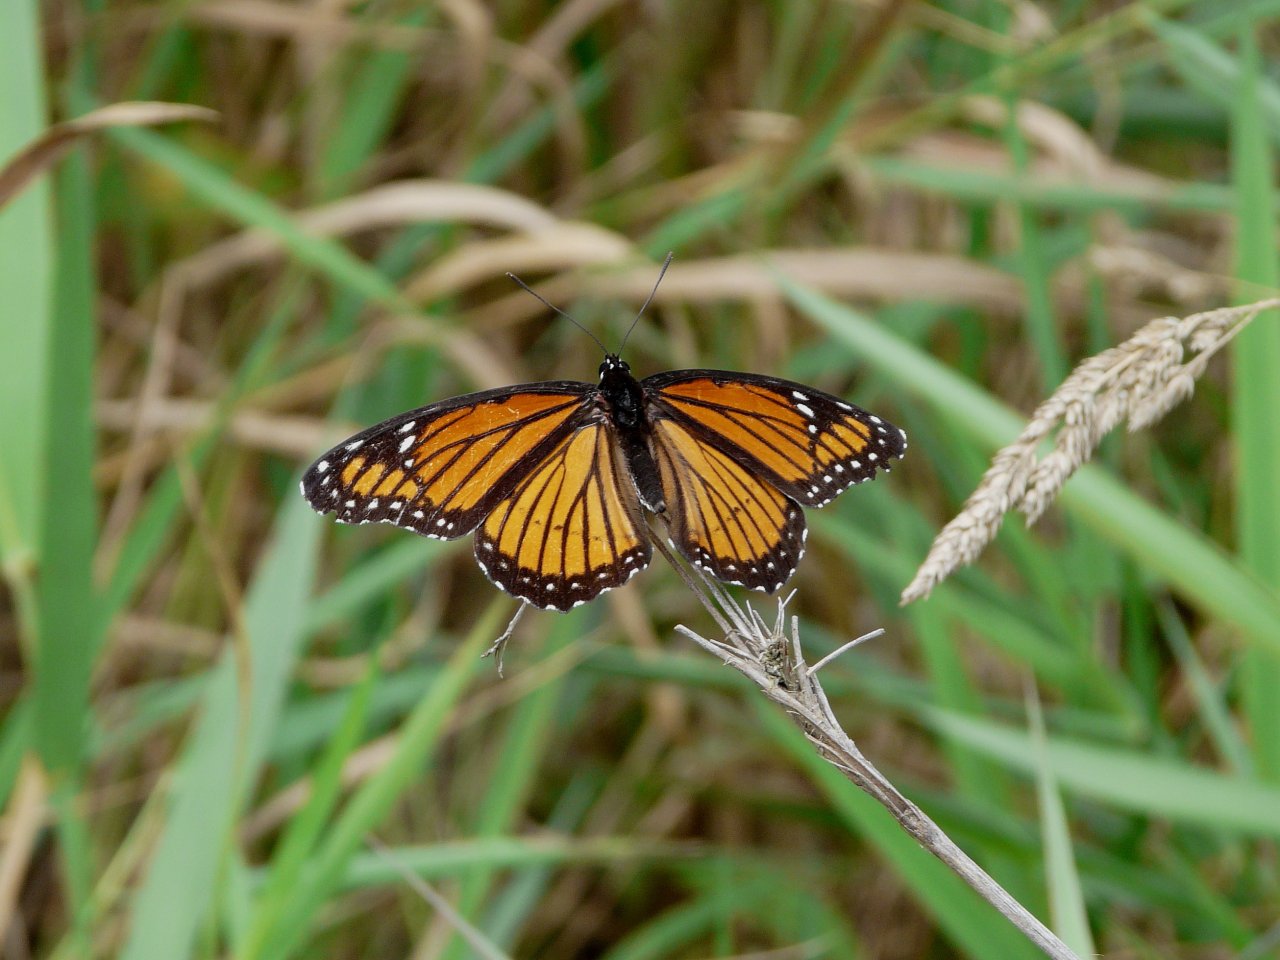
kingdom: Animalia
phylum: Arthropoda
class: Insecta
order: Lepidoptera
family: Nymphalidae
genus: Limenitis
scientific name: Limenitis archippus
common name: Viceroy
